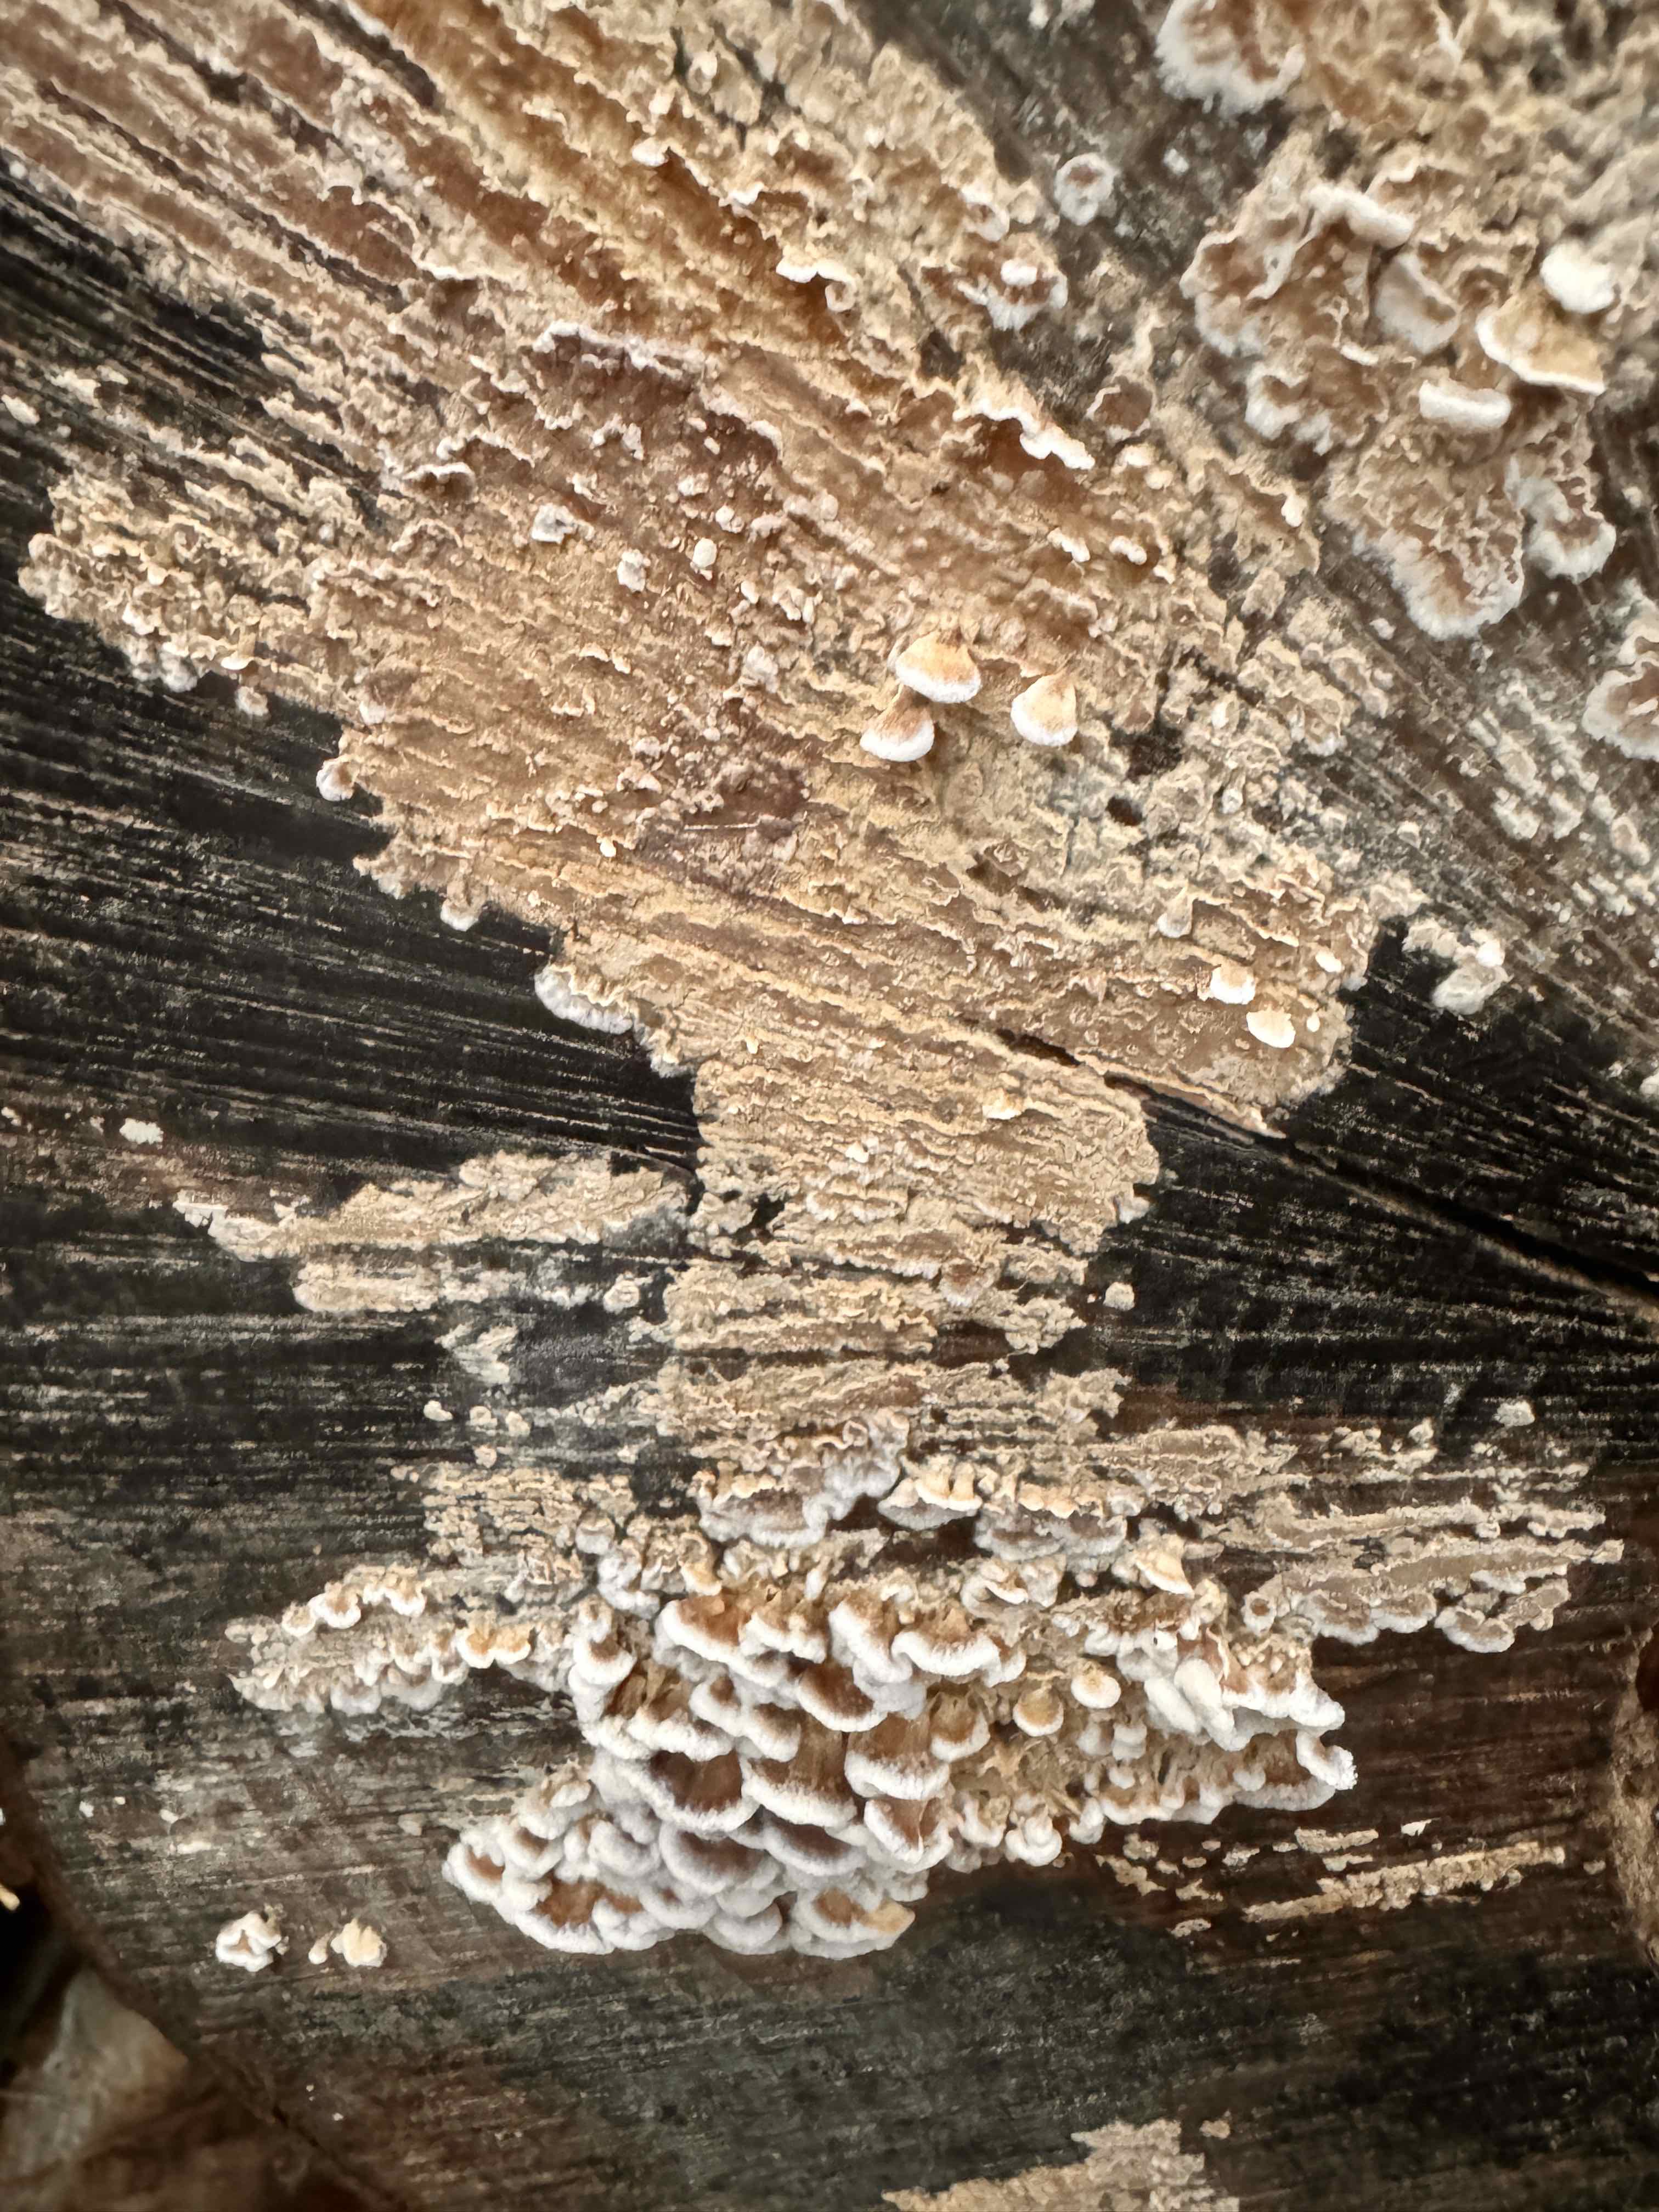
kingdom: Fungi
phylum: Basidiomycota
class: Agaricomycetes
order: Agaricales
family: Physalacriaceae
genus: Cylindrobasidium
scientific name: Cylindrobasidium evolvens
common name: sprækkehinde
